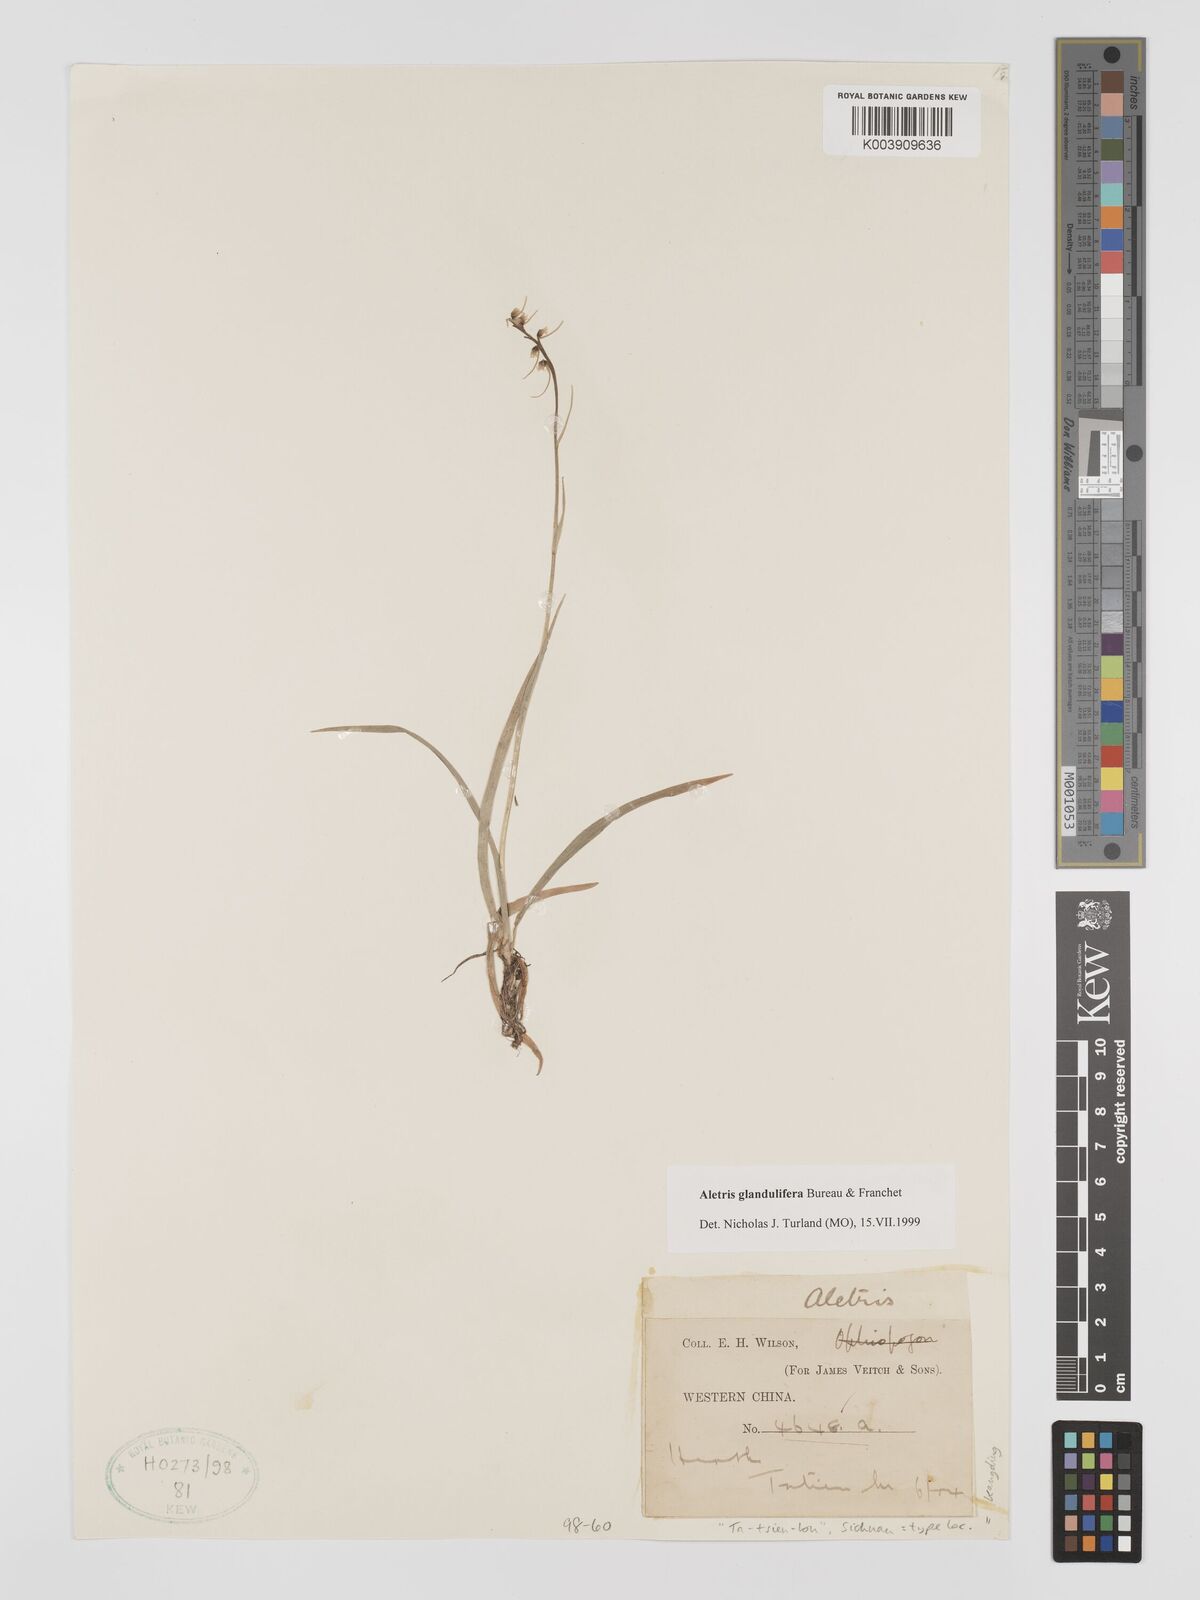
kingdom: Plantae
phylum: Tracheophyta
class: Liliopsida
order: Dioscoreales
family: Nartheciaceae
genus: Aletris
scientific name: Aletris glandulifera
